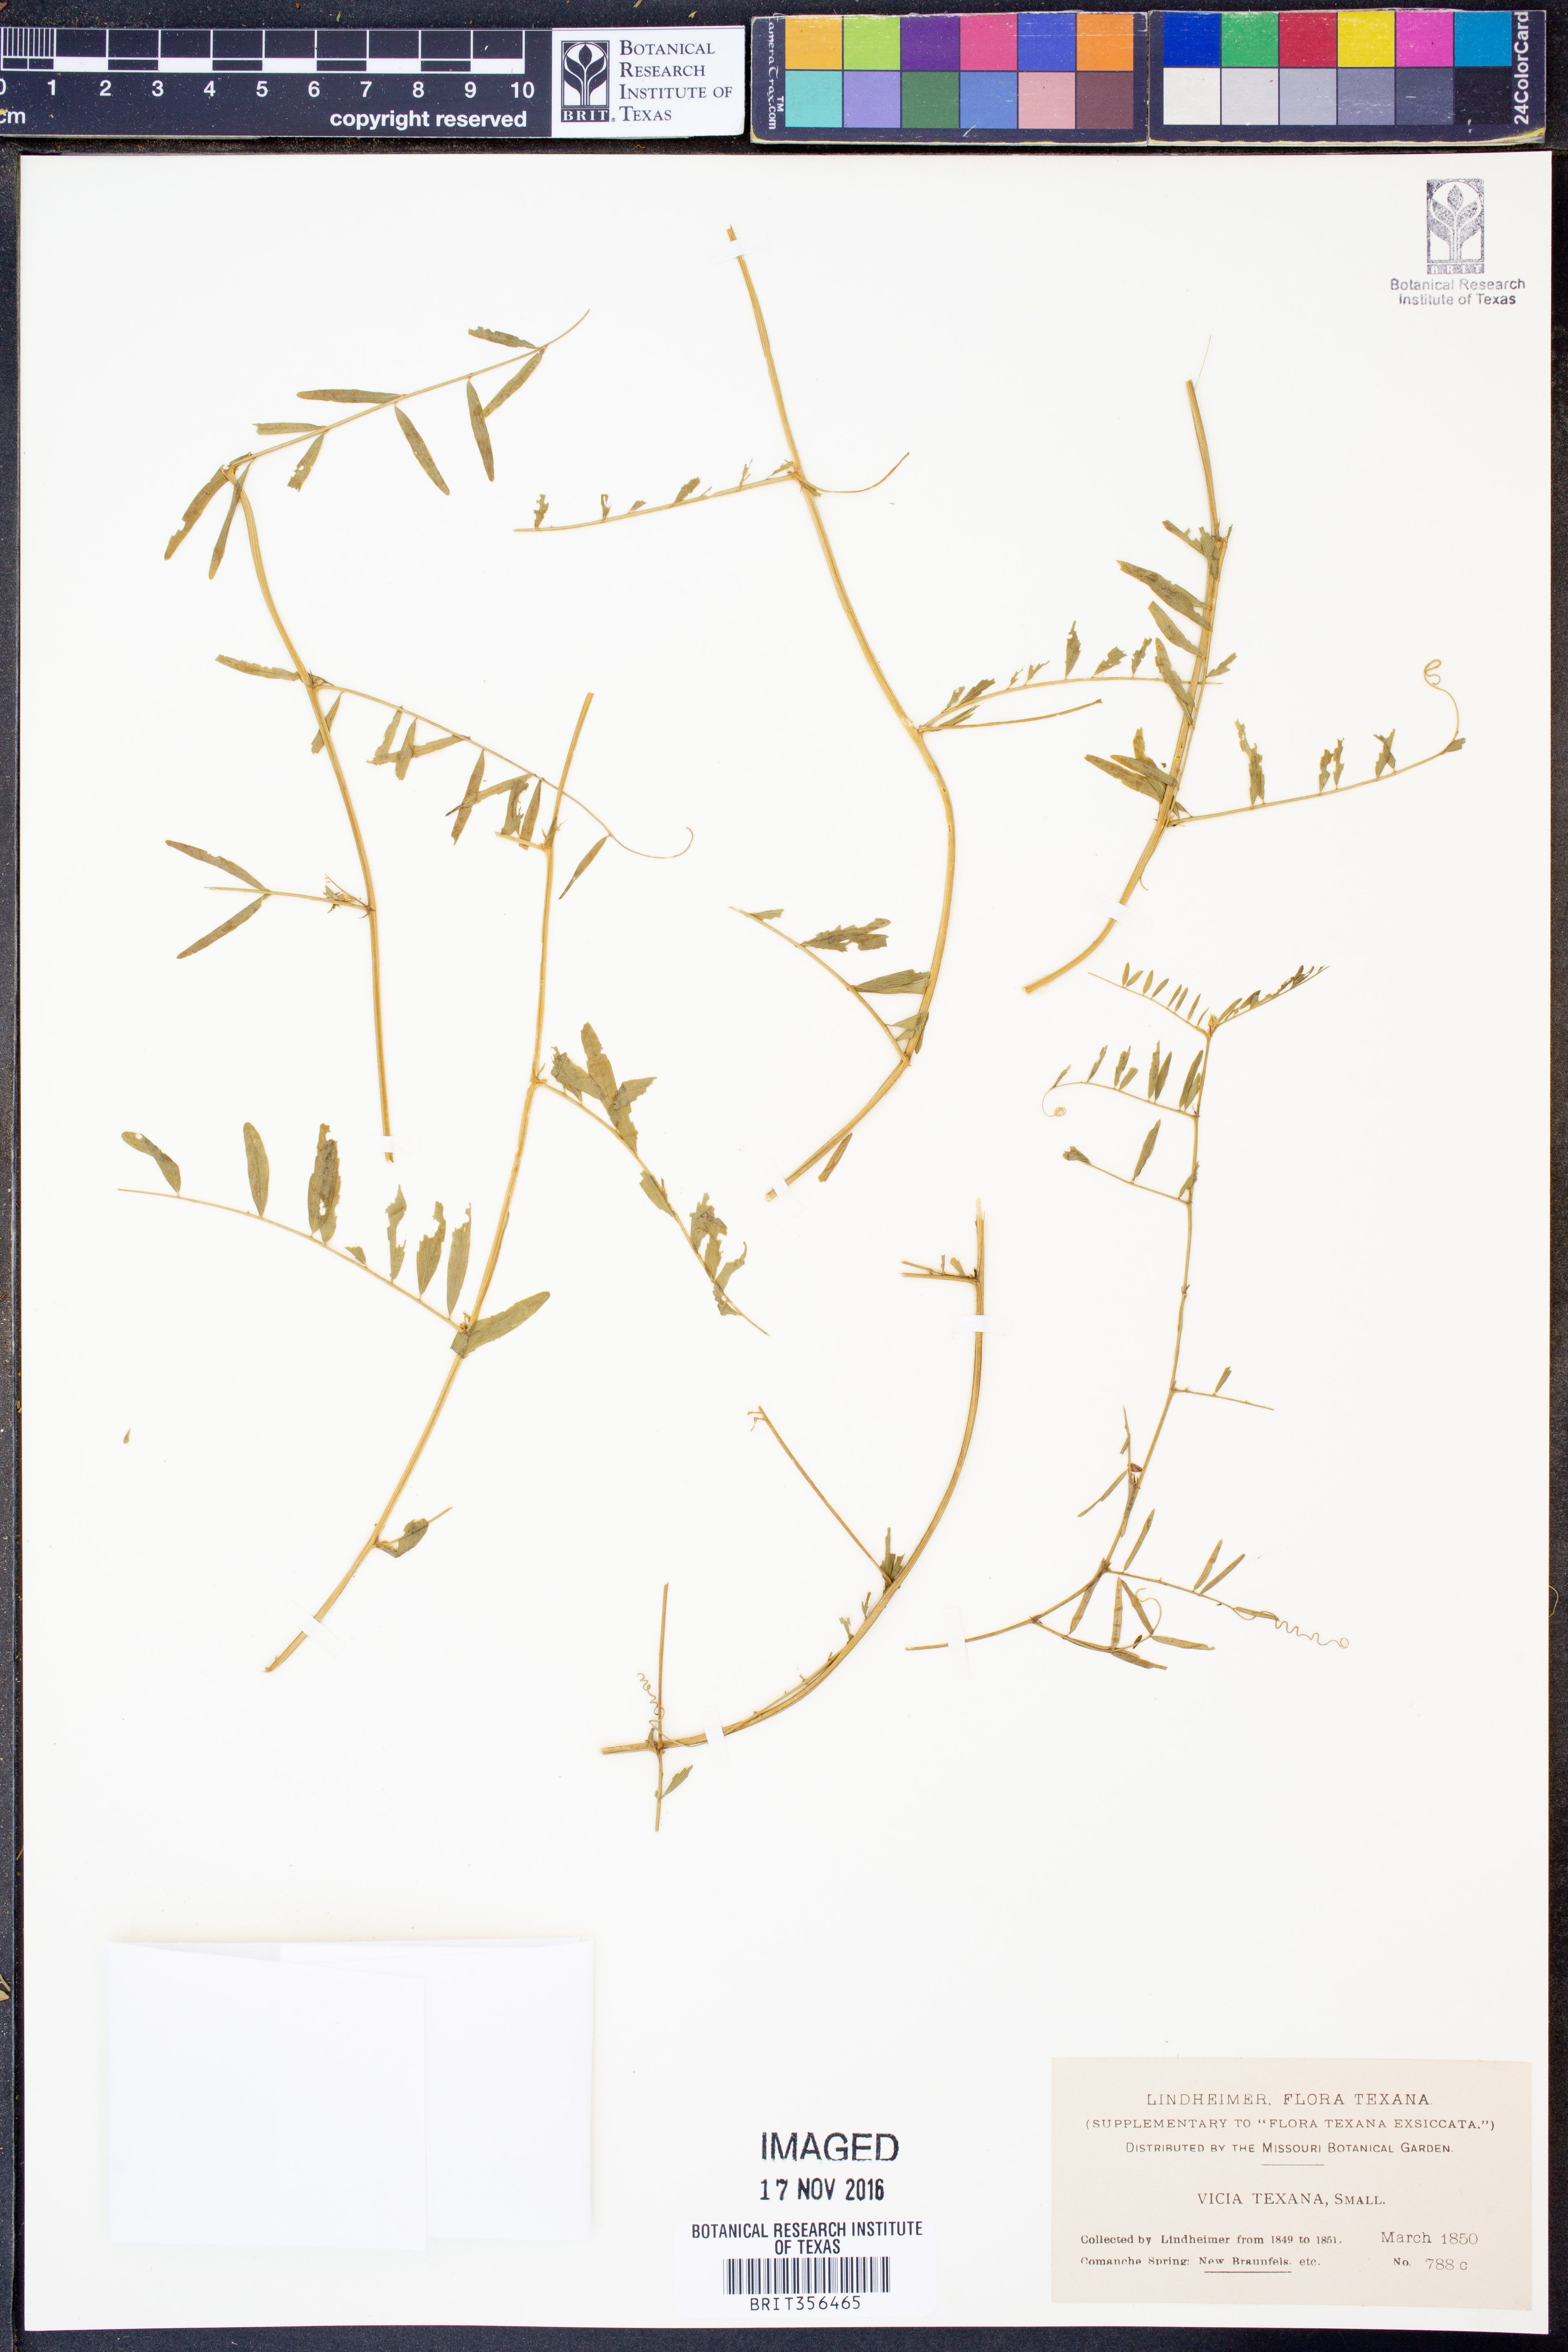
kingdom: Plantae
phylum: Tracheophyta
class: Magnoliopsida
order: Fabales
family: Fabaceae
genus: Vicia
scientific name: Vicia ludoviciana
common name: Louisiana vetch
